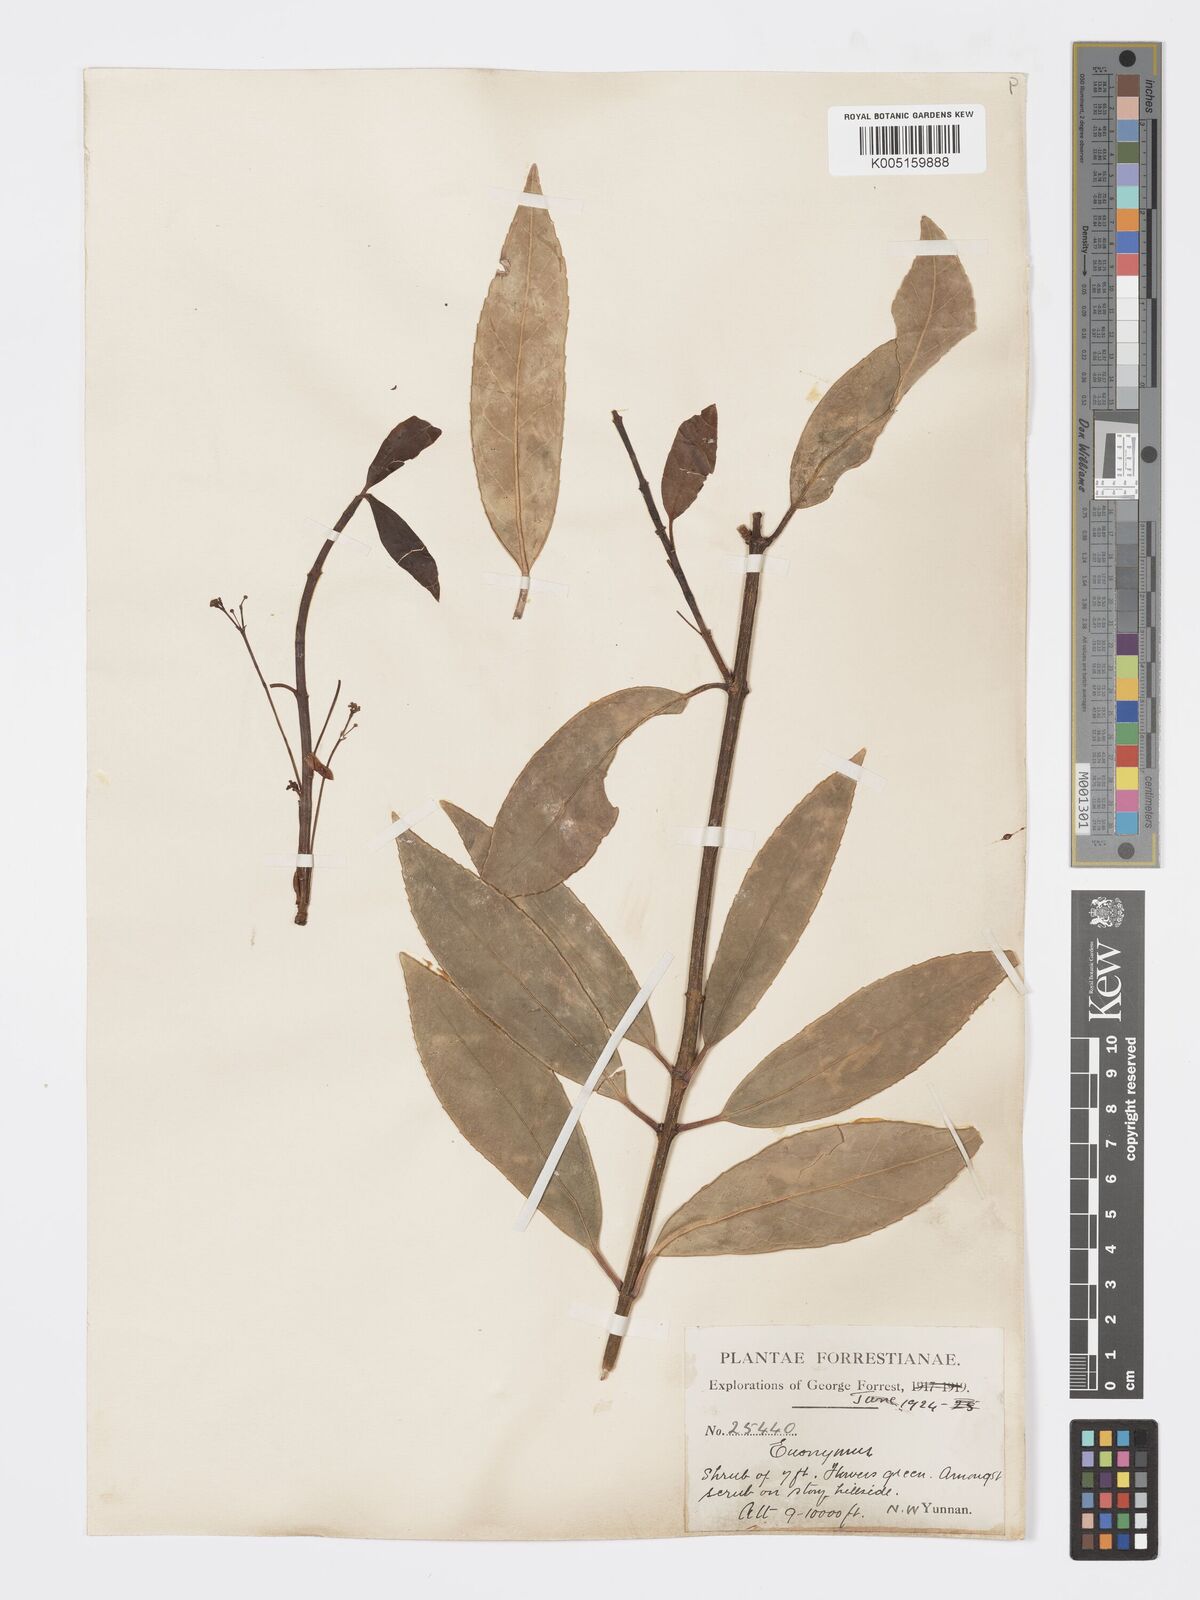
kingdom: Plantae
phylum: Tracheophyta
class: Magnoliopsida
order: Celastrales
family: Celastraceae
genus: Euonymus
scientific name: Euonymus acanthocarpus
